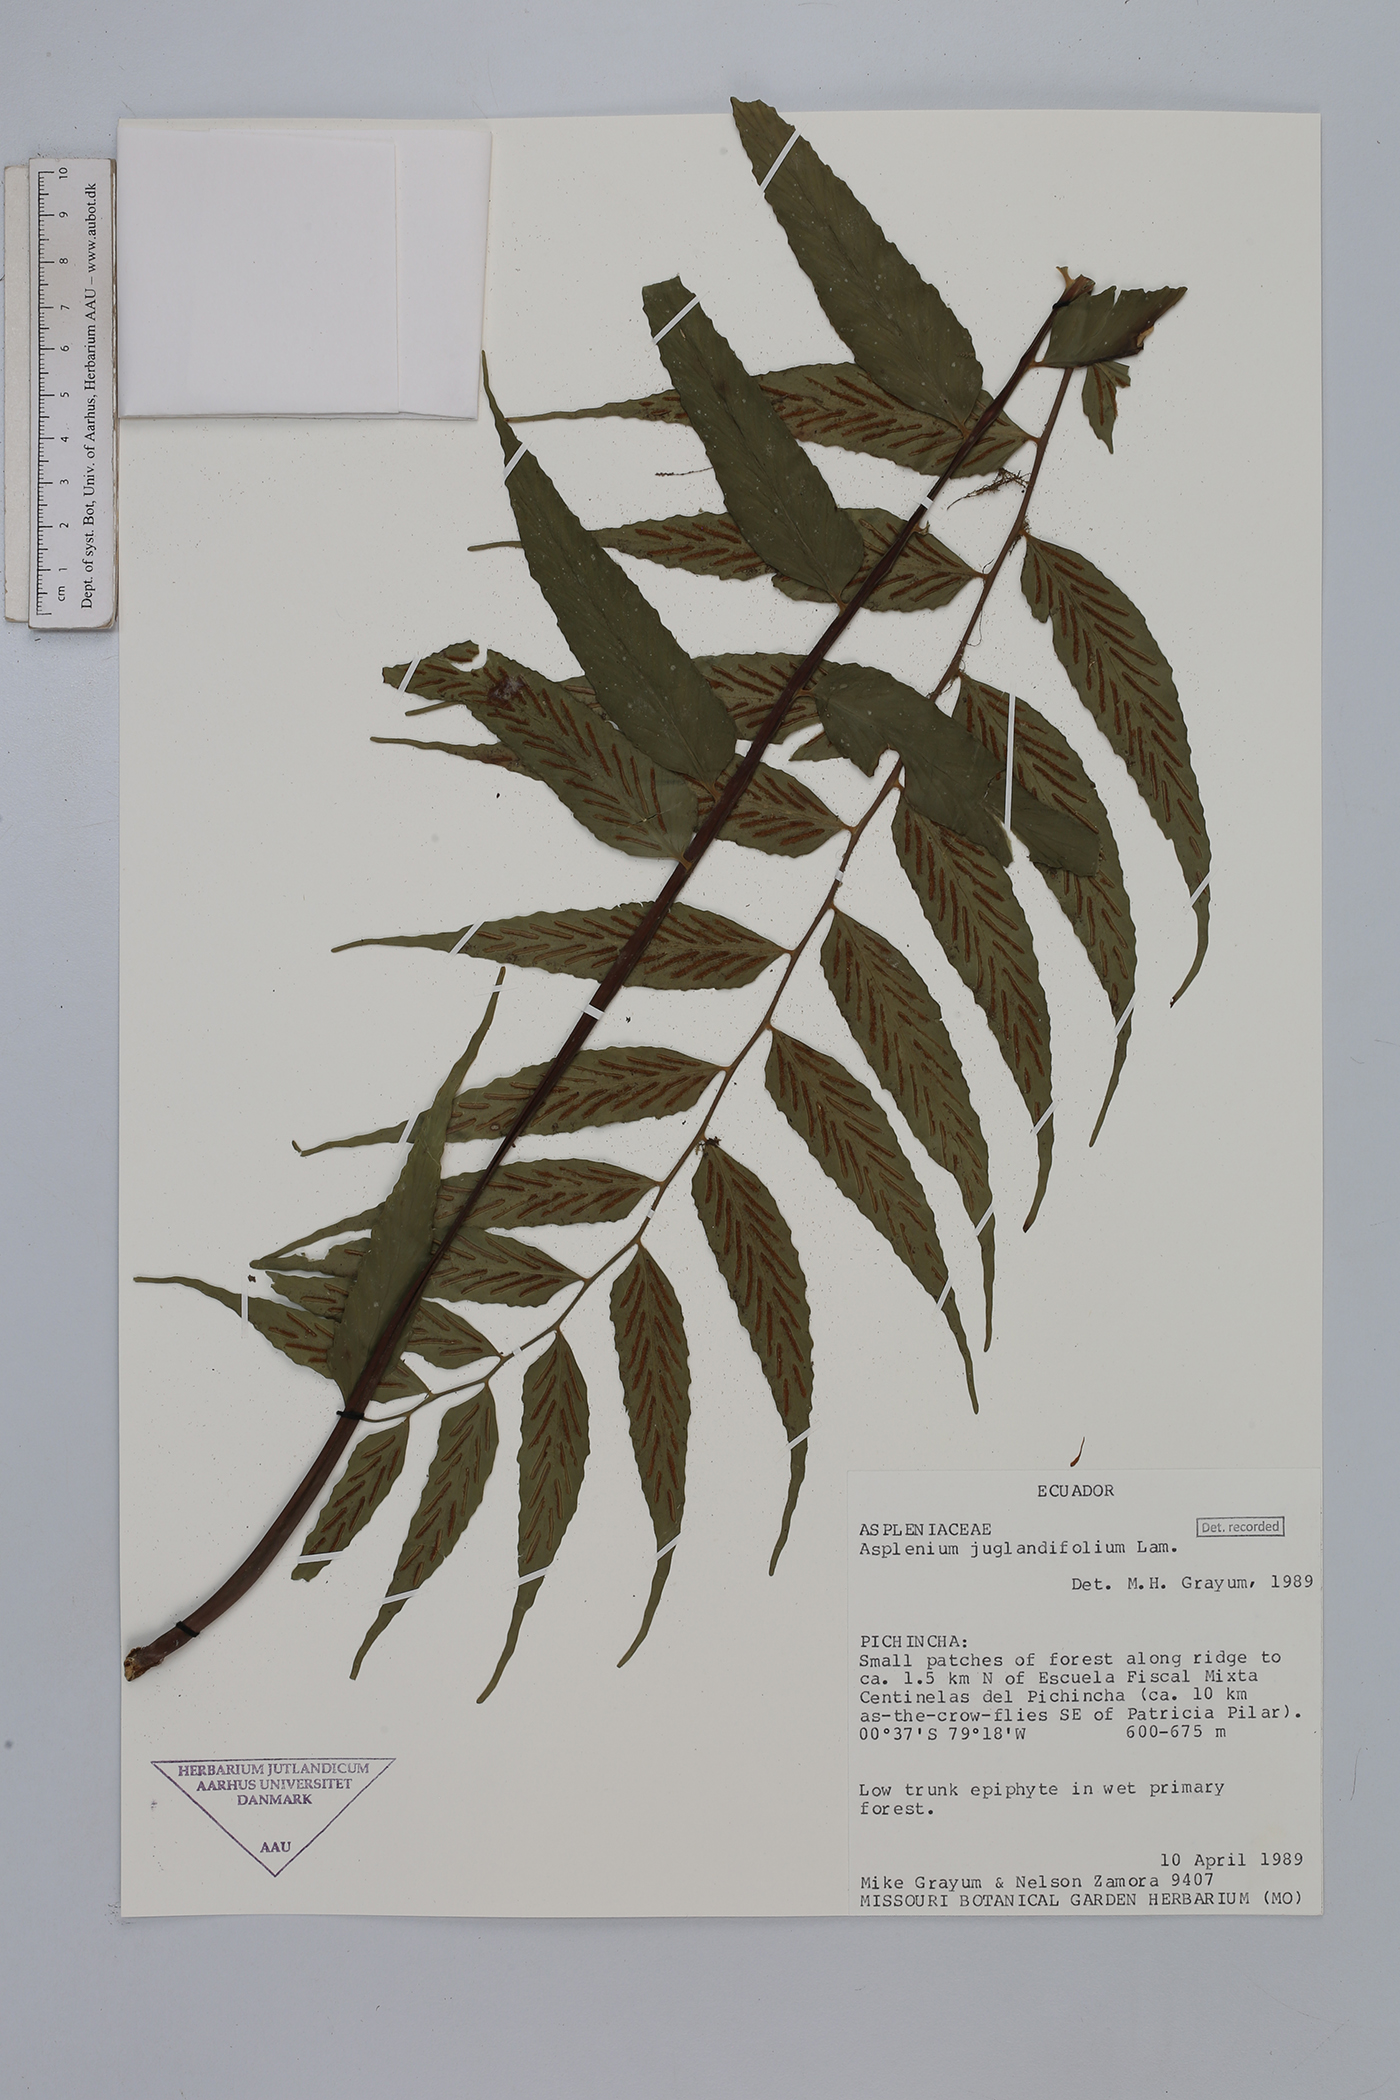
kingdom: Plantae
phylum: Tracheophyta
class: Polypodiopsida
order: Polypodiales
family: Aspleniaceae
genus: Asplenium
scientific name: Asplenium juglandifolium
